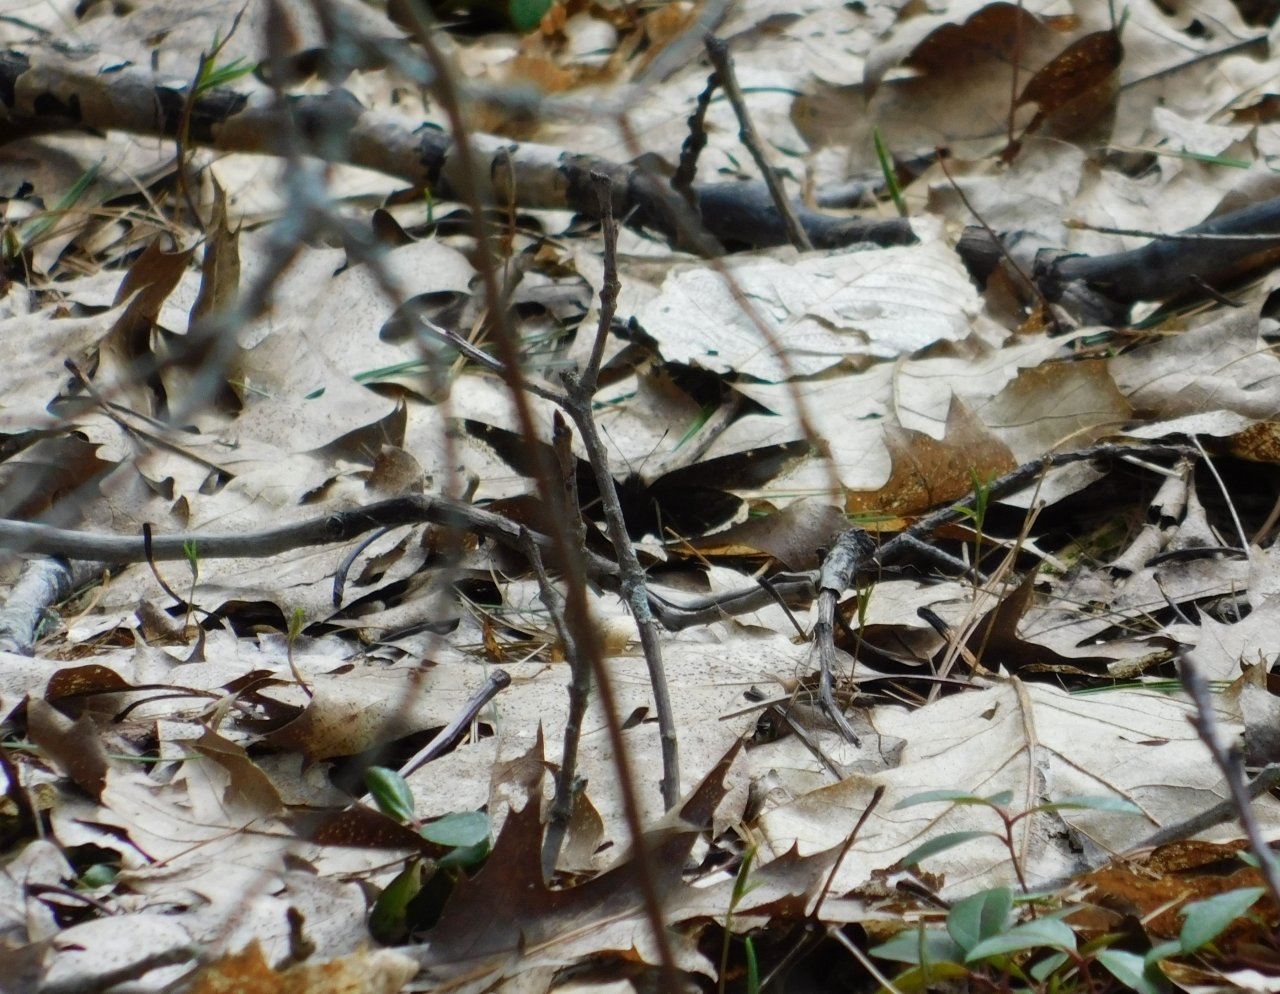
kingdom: Animalia
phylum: Arthropoda
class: Insecta
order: Lepidoptera
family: Nymphalidae
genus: Nymphalis
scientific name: Nymphalis antiopa
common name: Mourning Cloak
